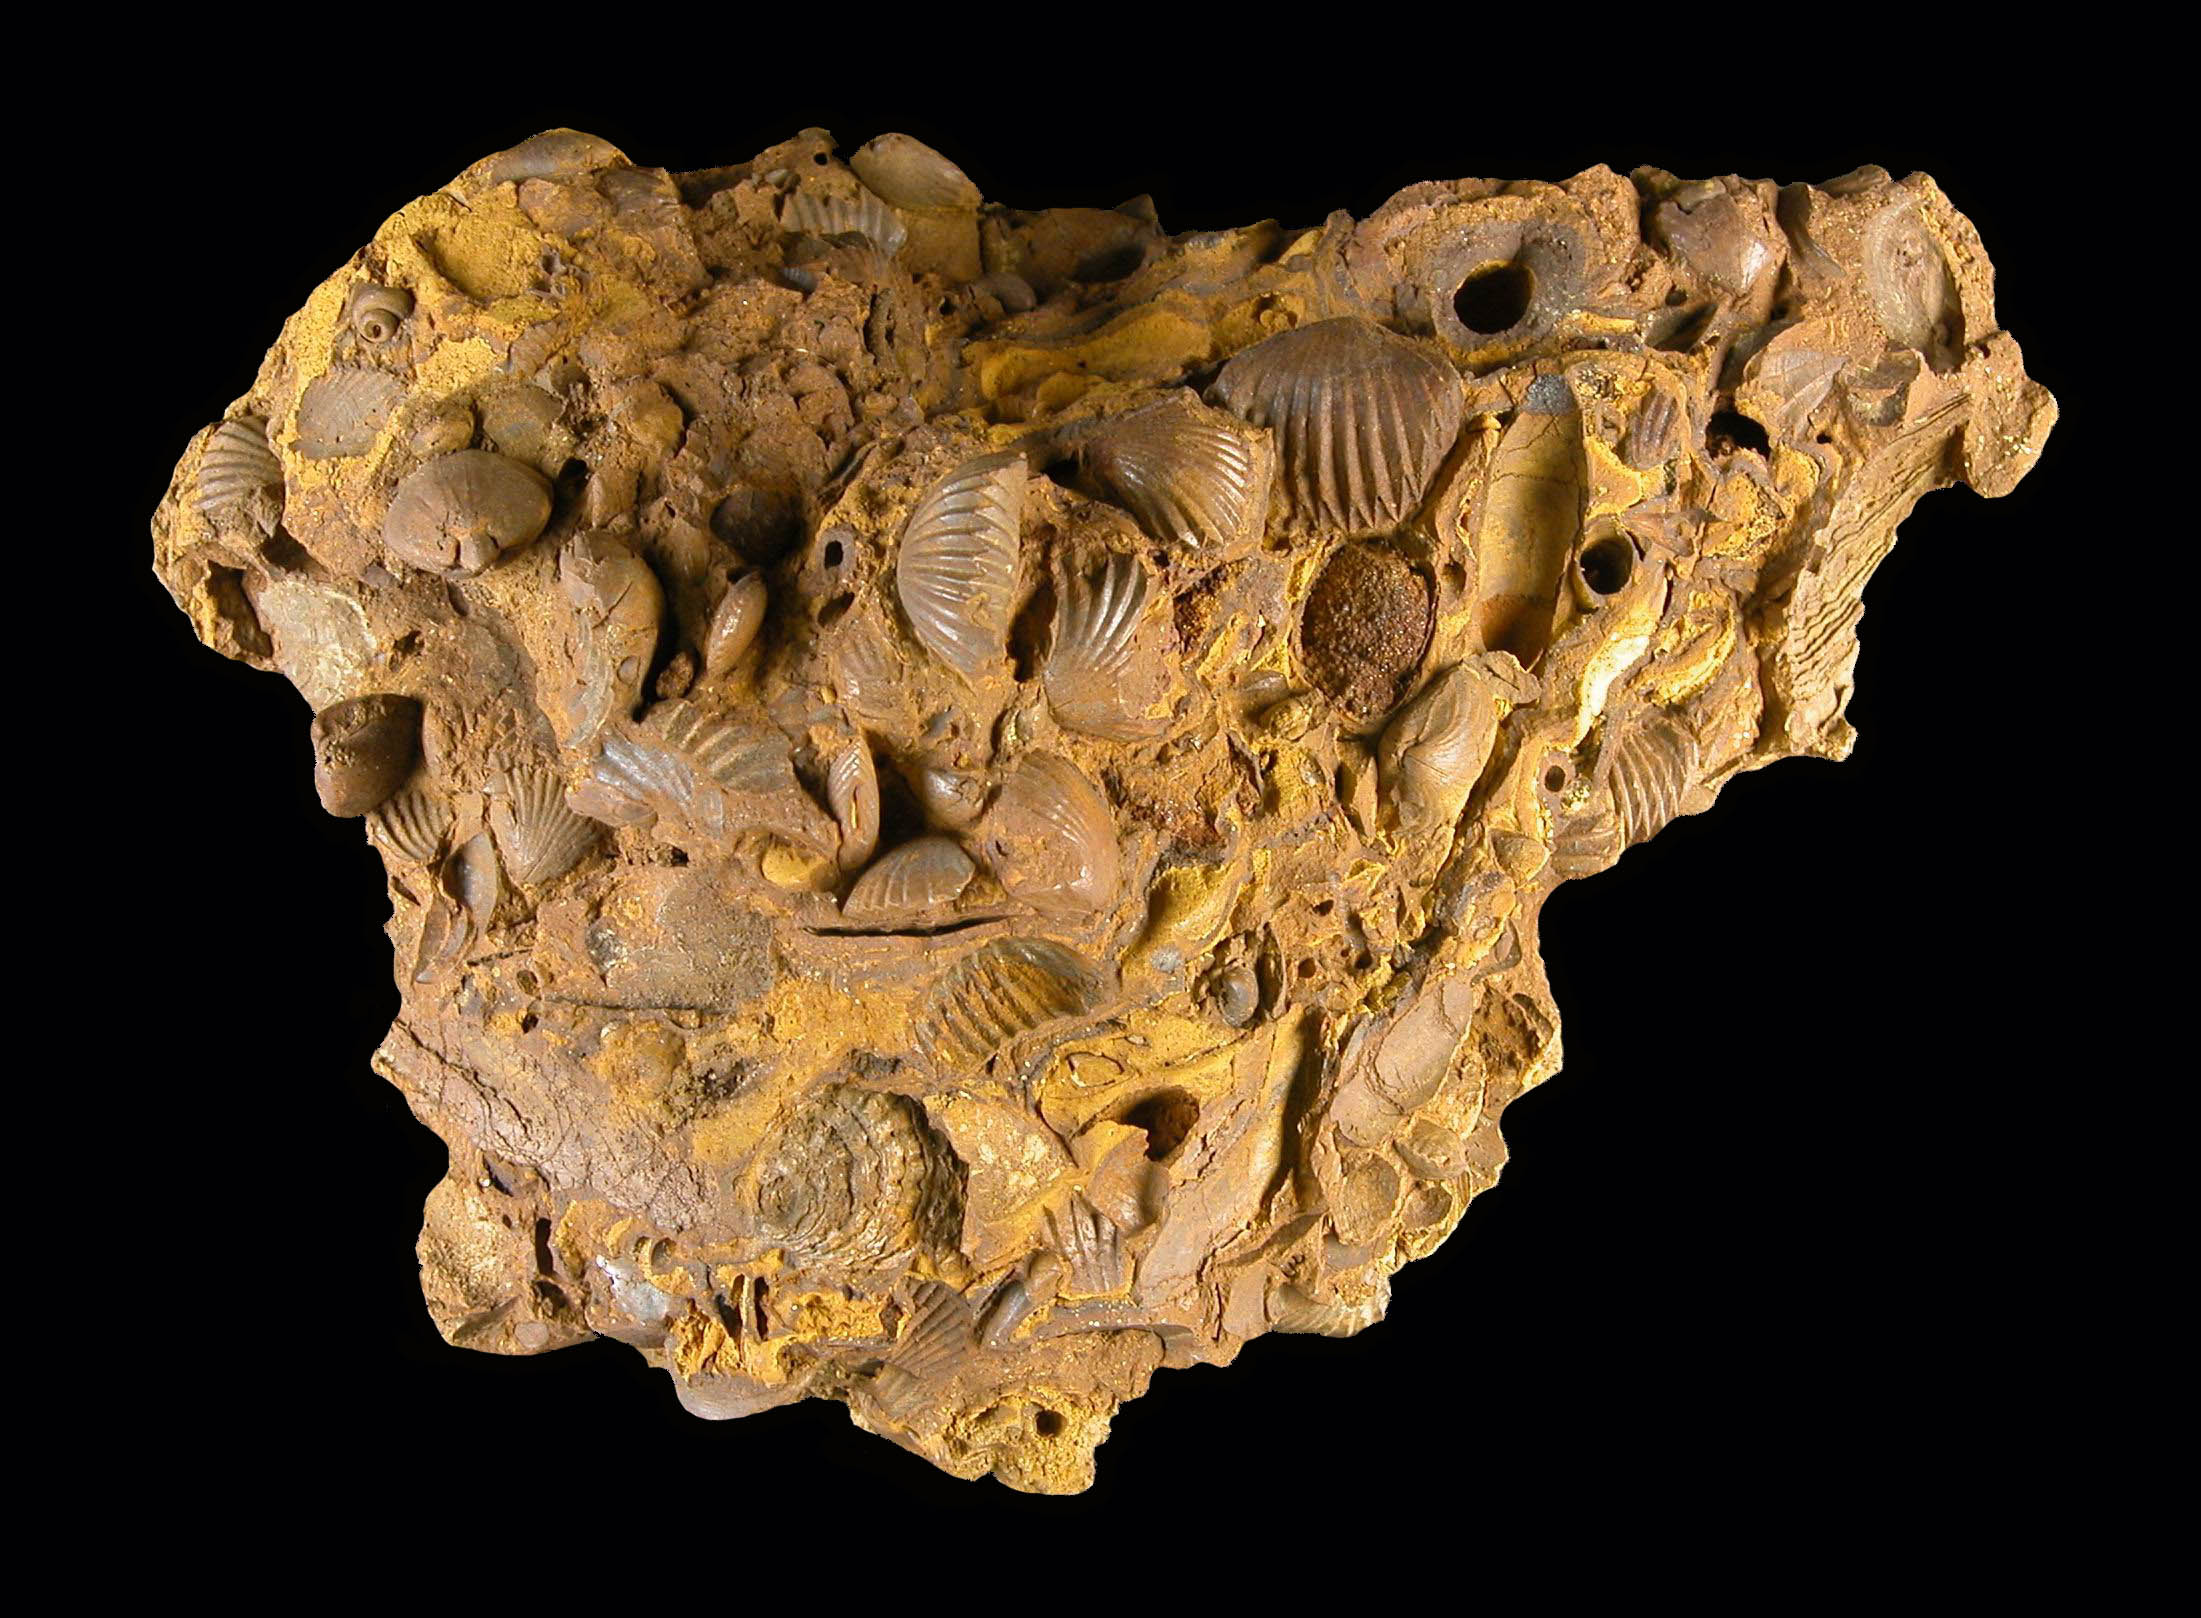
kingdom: Animalia
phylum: Brachiopoda
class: Rhynchonellata
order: Rhynchonellida
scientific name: Rhynchonellida
